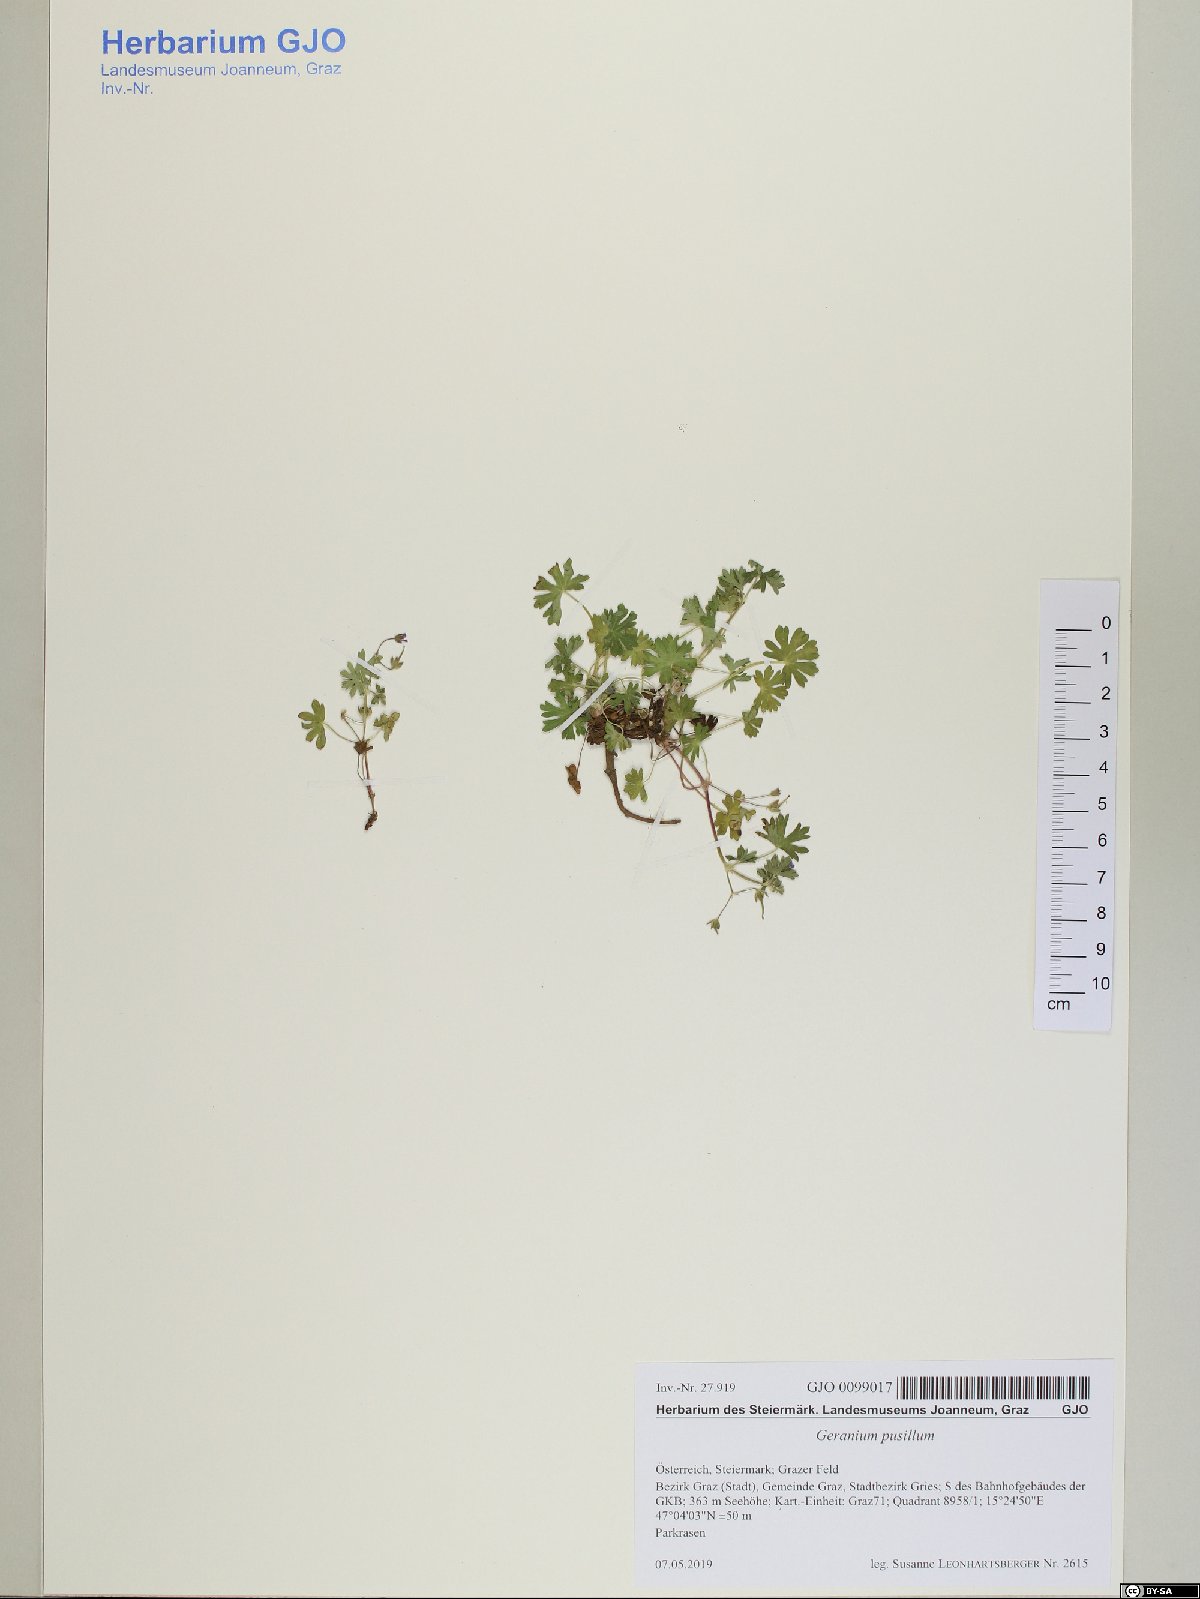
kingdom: Plantae
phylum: Tracheophyta
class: Magnoliopsida
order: Geraniales
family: Geraniaceae
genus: Geranium
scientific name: Geranium pusillum
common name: Small geranium
